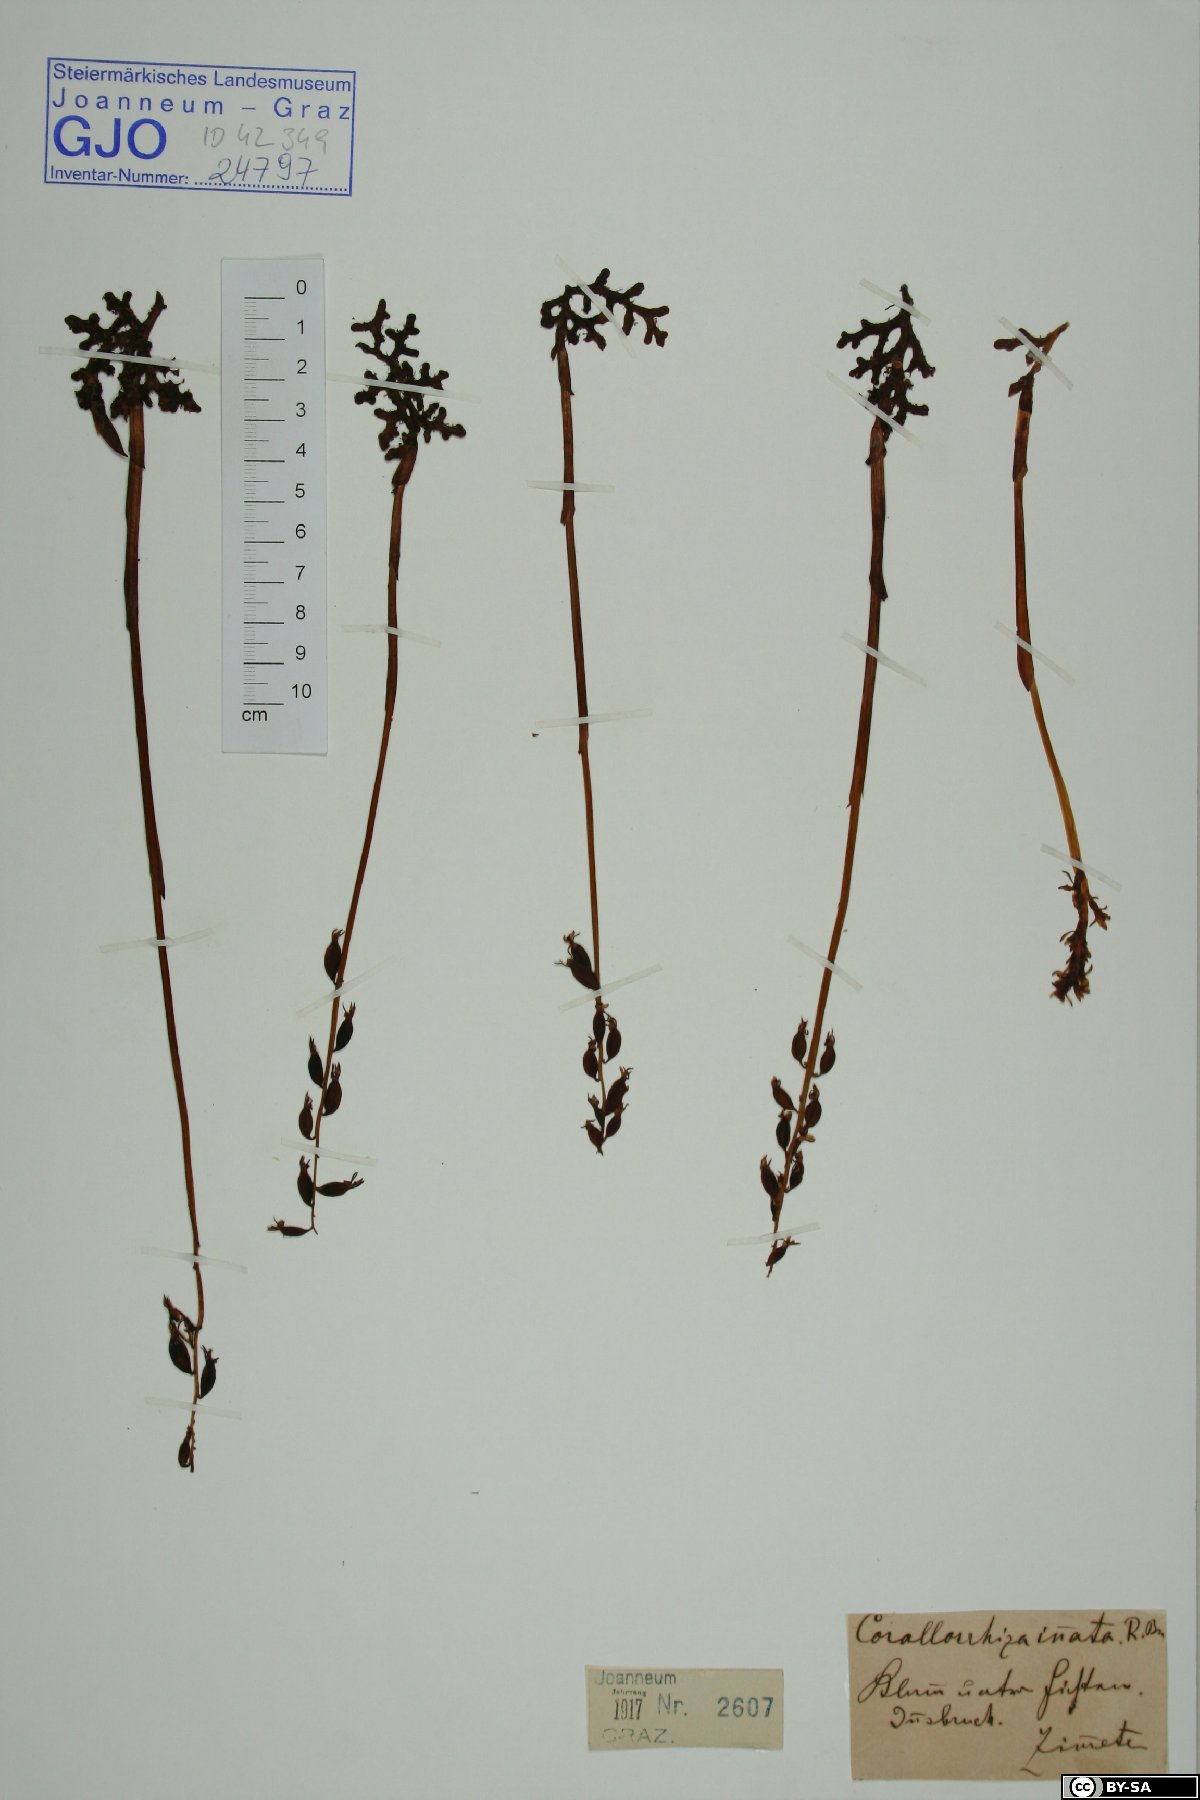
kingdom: Plantae
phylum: Tracheophyta
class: Liliopsida
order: Asparagales
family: Orchidaceae
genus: Corallorhiza
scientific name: Corallorhiza trifida
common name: Yellow coralroot
